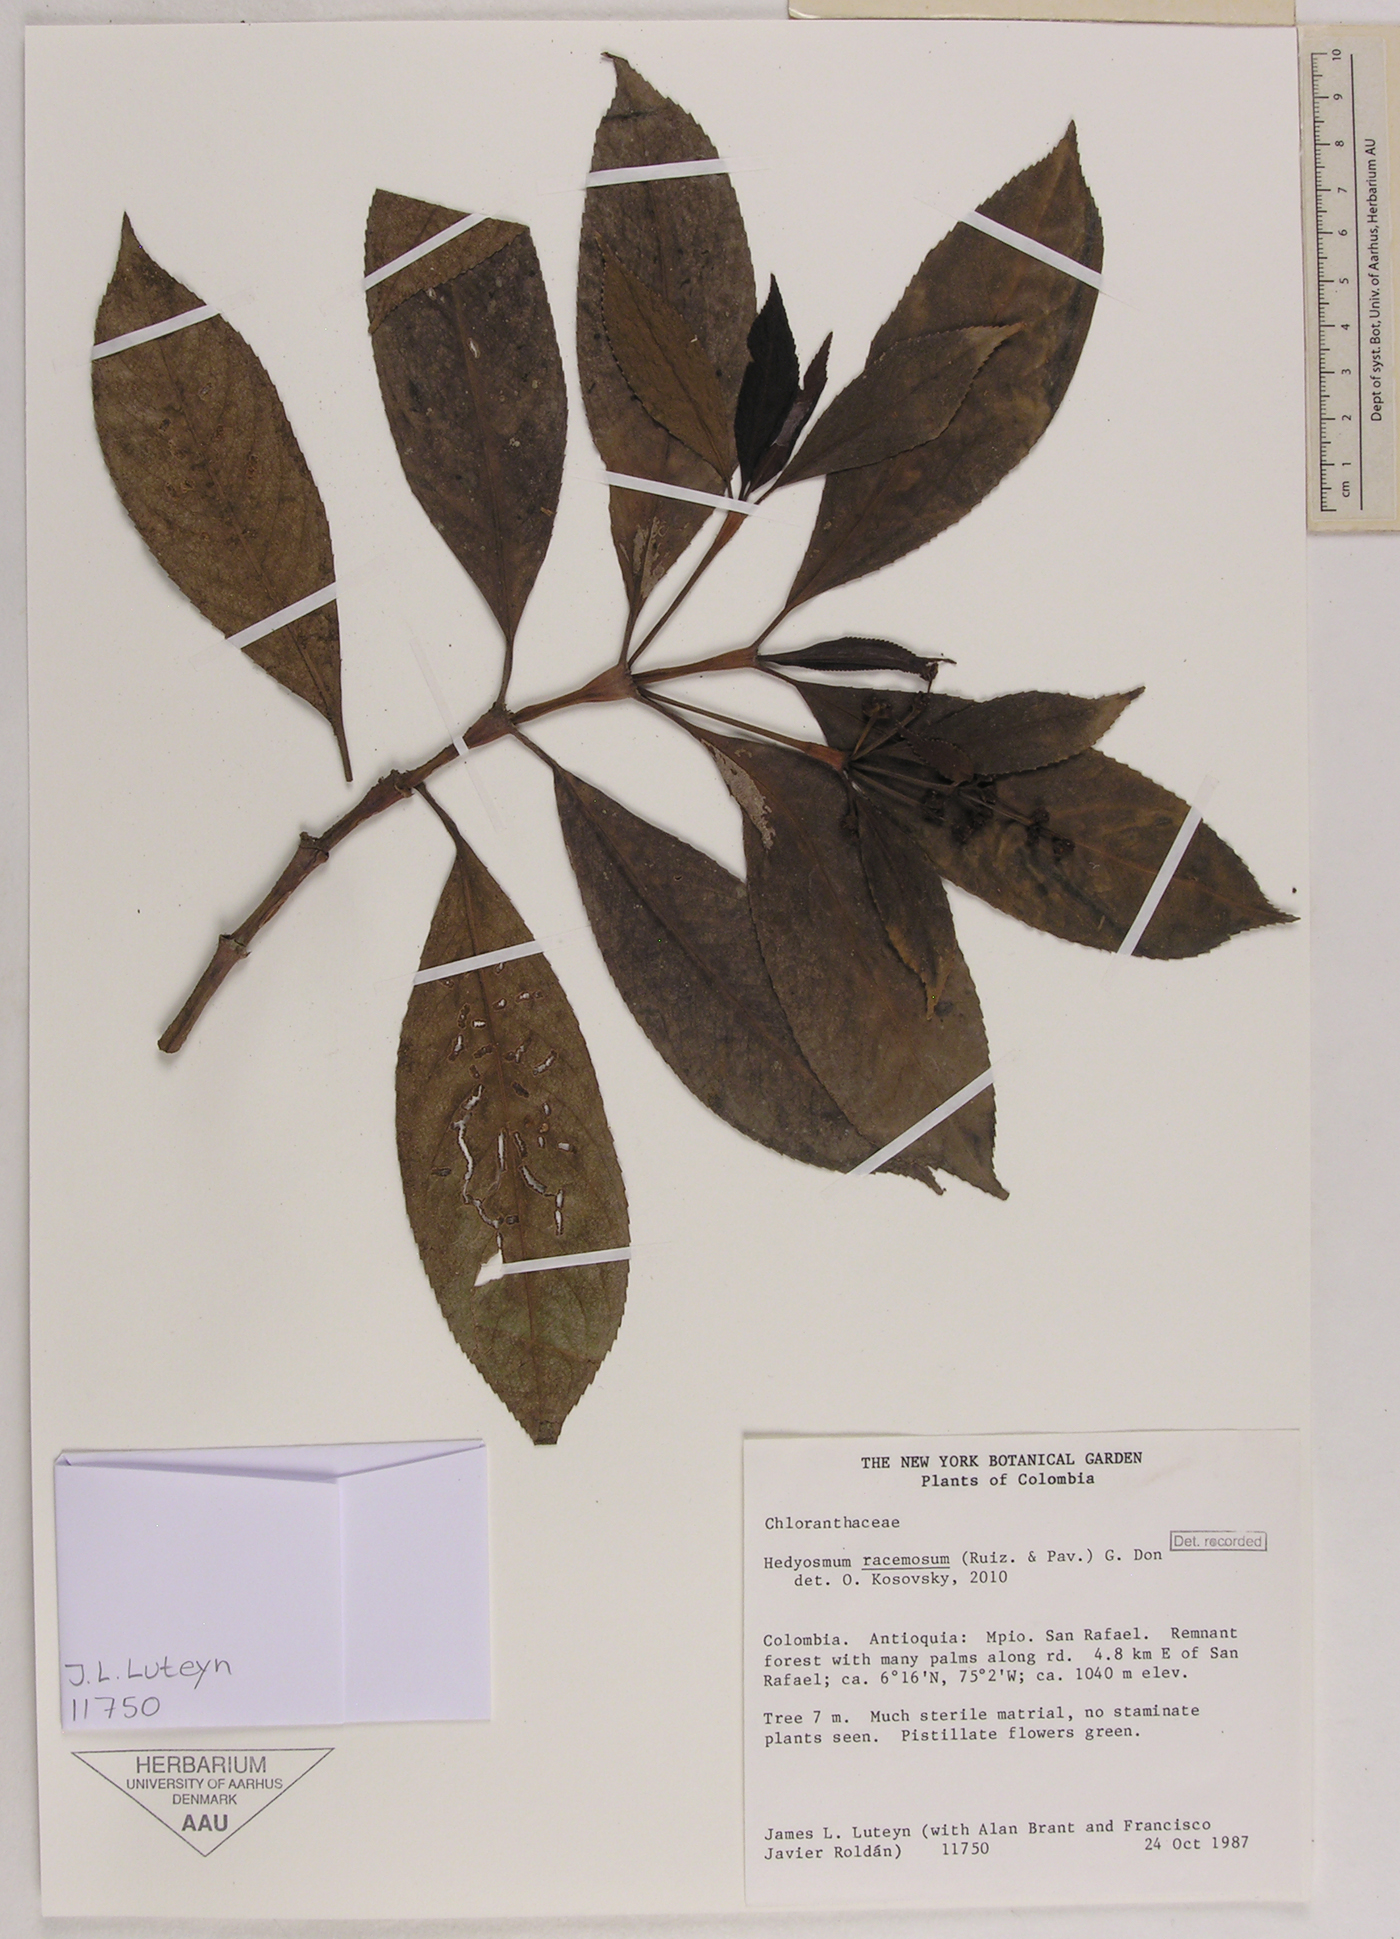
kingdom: Plantae
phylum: Tracheophyta
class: Magnoliopsida
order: Chloranthales
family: Chloranthaceae
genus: Hedyosmum
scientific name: Hedyosmum racemosum
